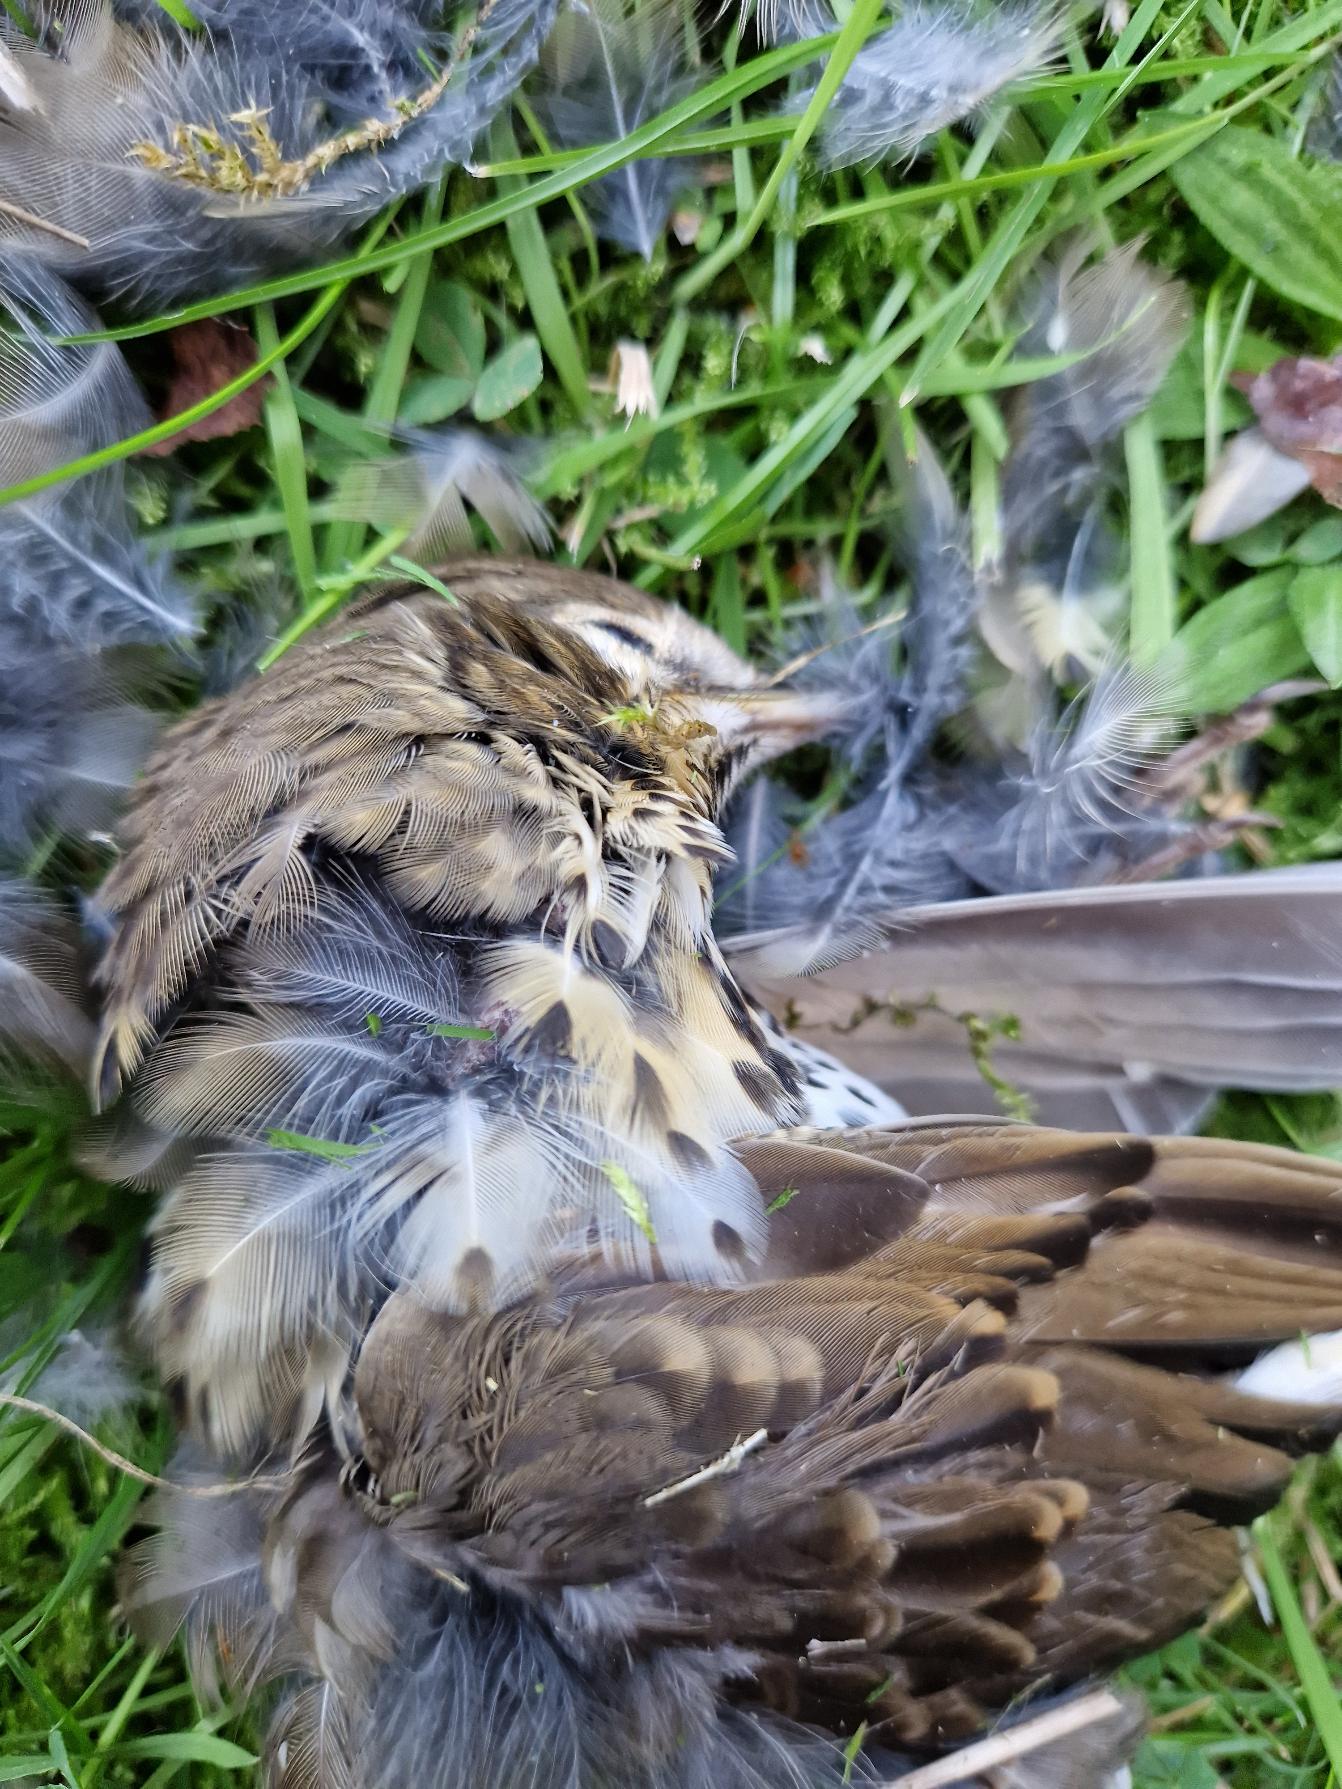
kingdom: Animalia
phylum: Chordata
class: Aves
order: Passeriformes
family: Turdidae
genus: Turdus
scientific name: Turdus philomelos
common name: Sangdrossel
